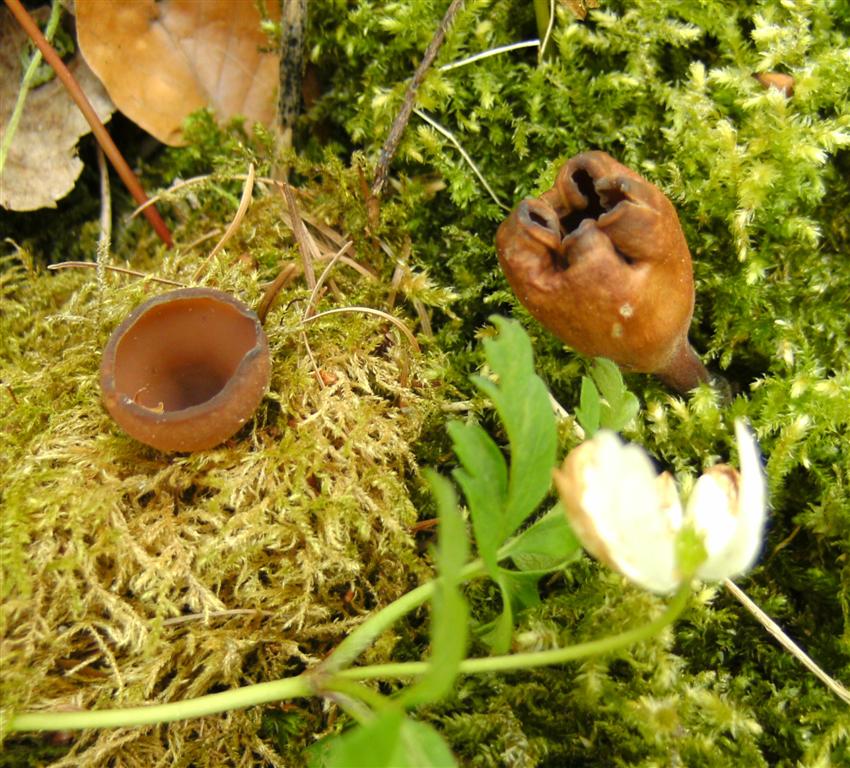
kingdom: Fungi
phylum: Ascomycota
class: Leotiomycetes
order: Helotiales
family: Sclerotiniaceae
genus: Dumontinia
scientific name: Dumontinia tuberosa
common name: anemone-knoldskive
